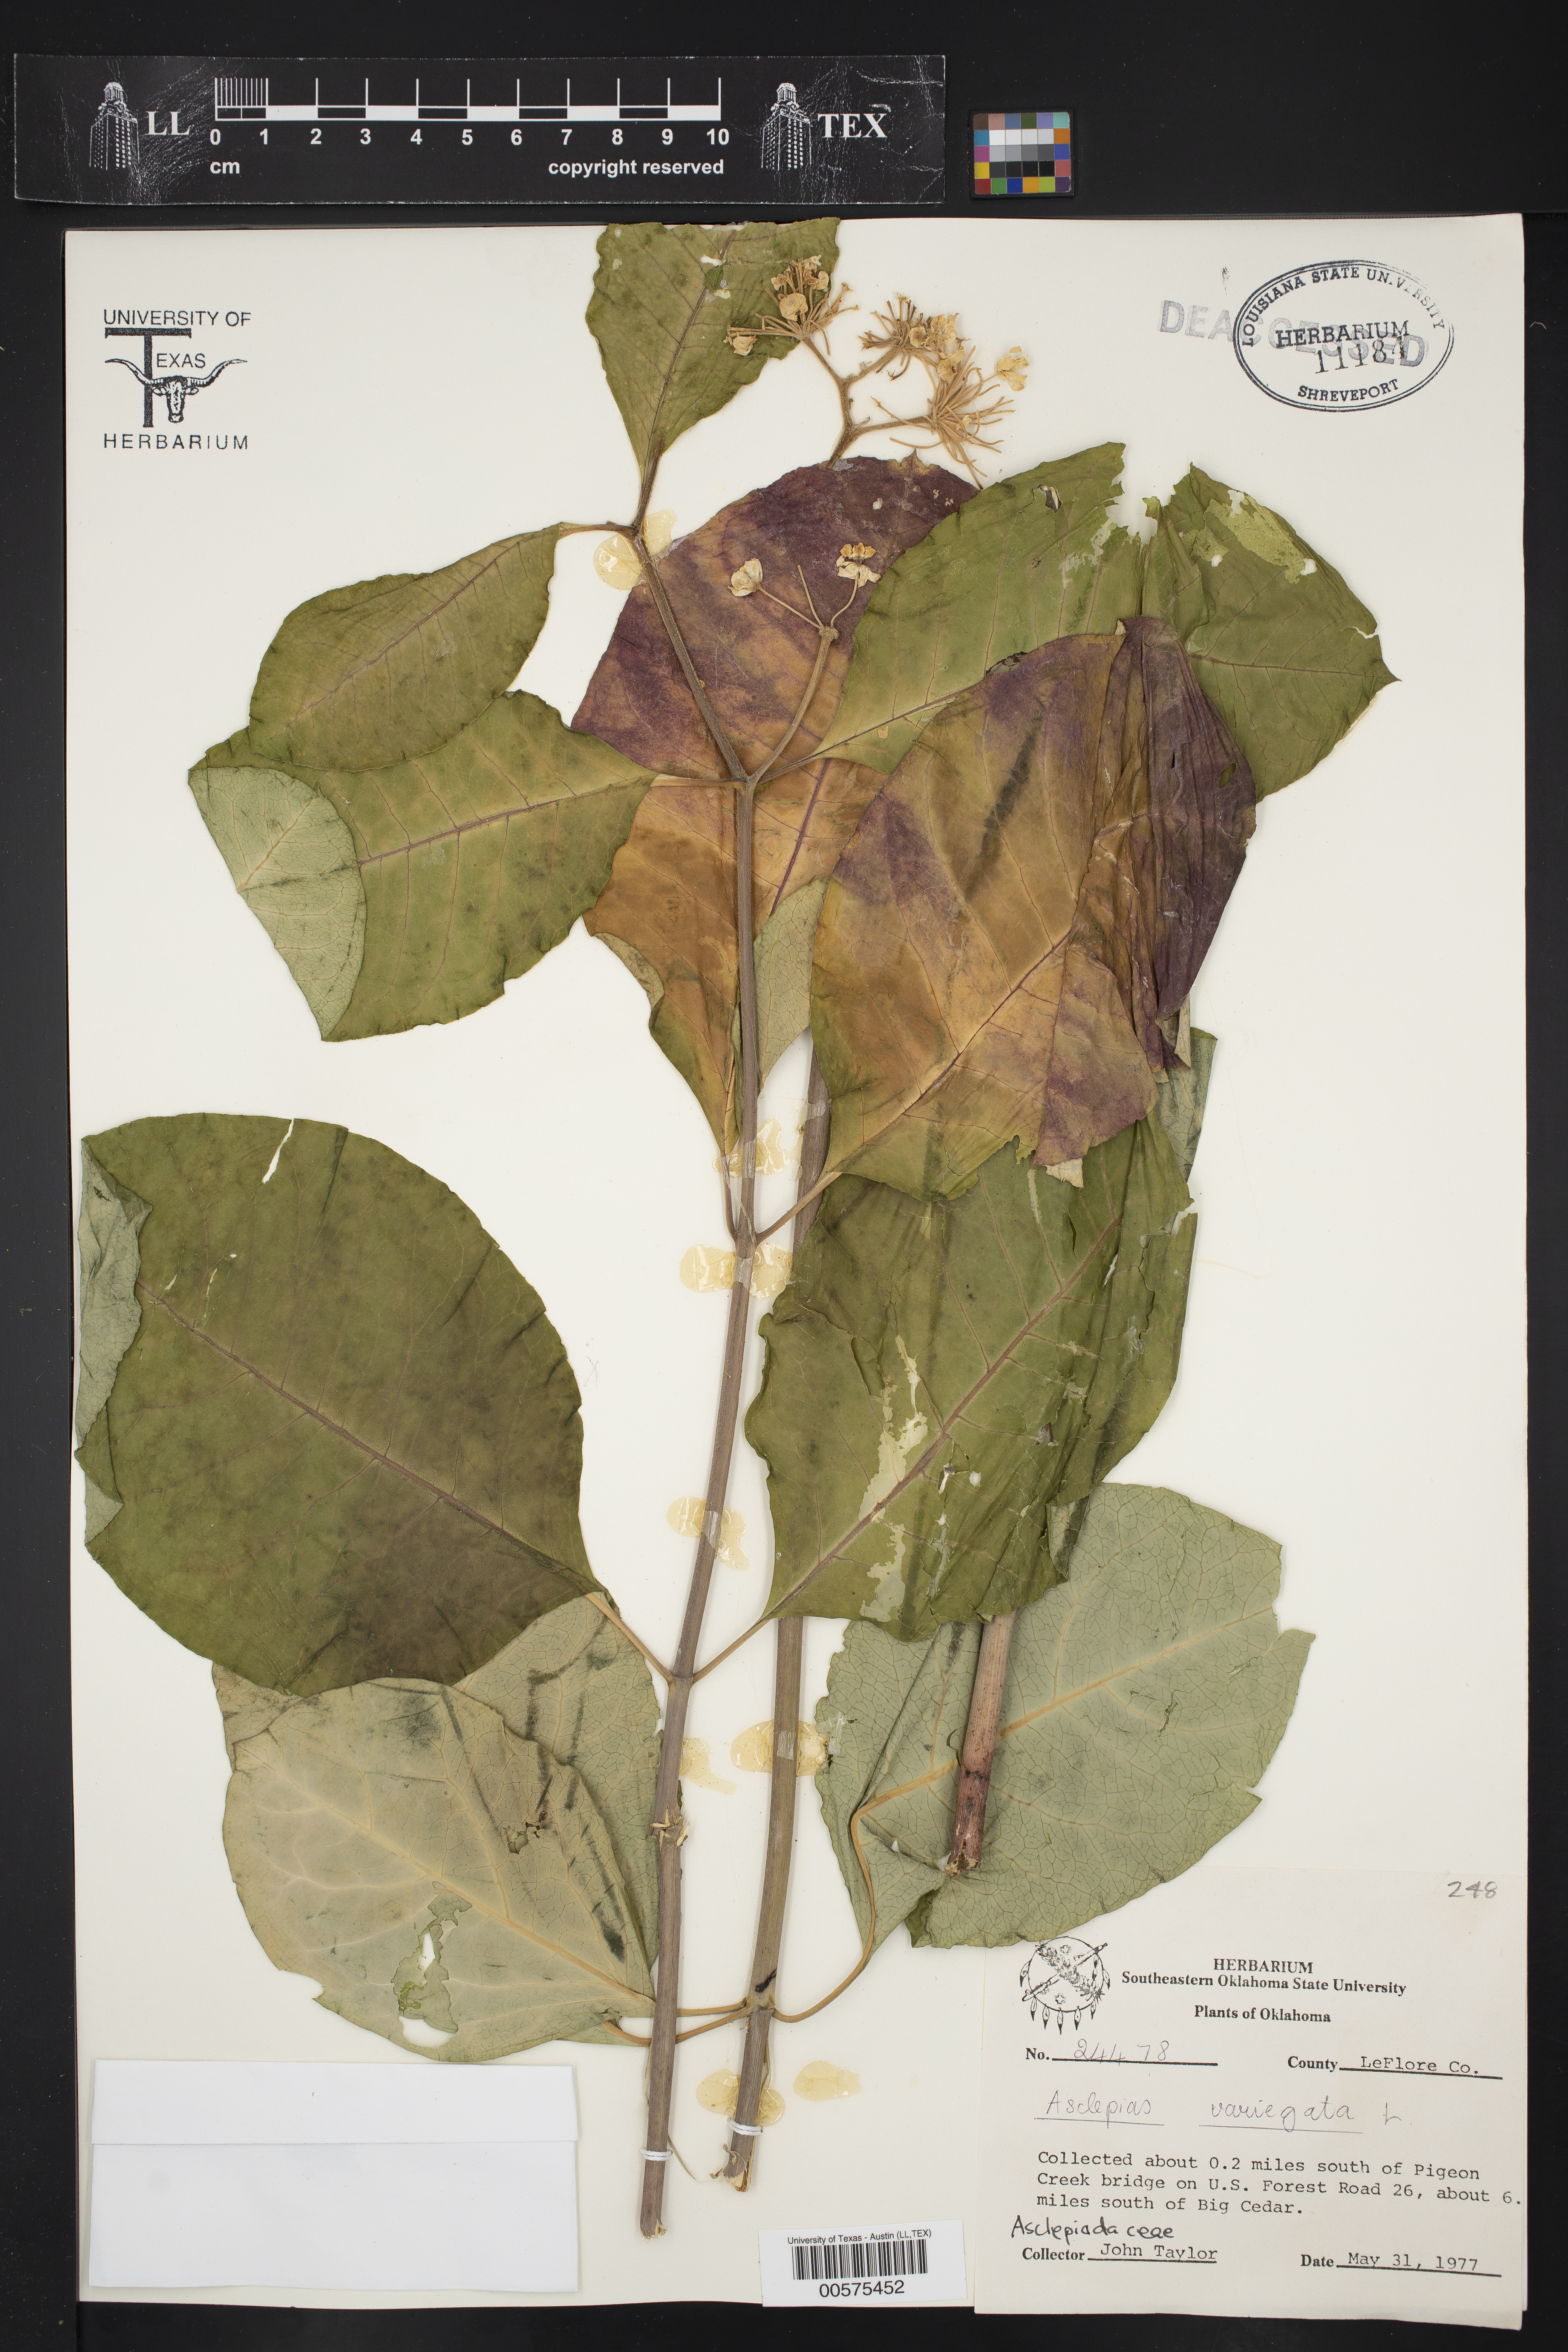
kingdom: Plantae
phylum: Tracheophyta
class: Magnoliopsida
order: Gentianales
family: Apocynaceae
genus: Asclepias
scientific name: Asclepias variegata
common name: Variegated milkweed
